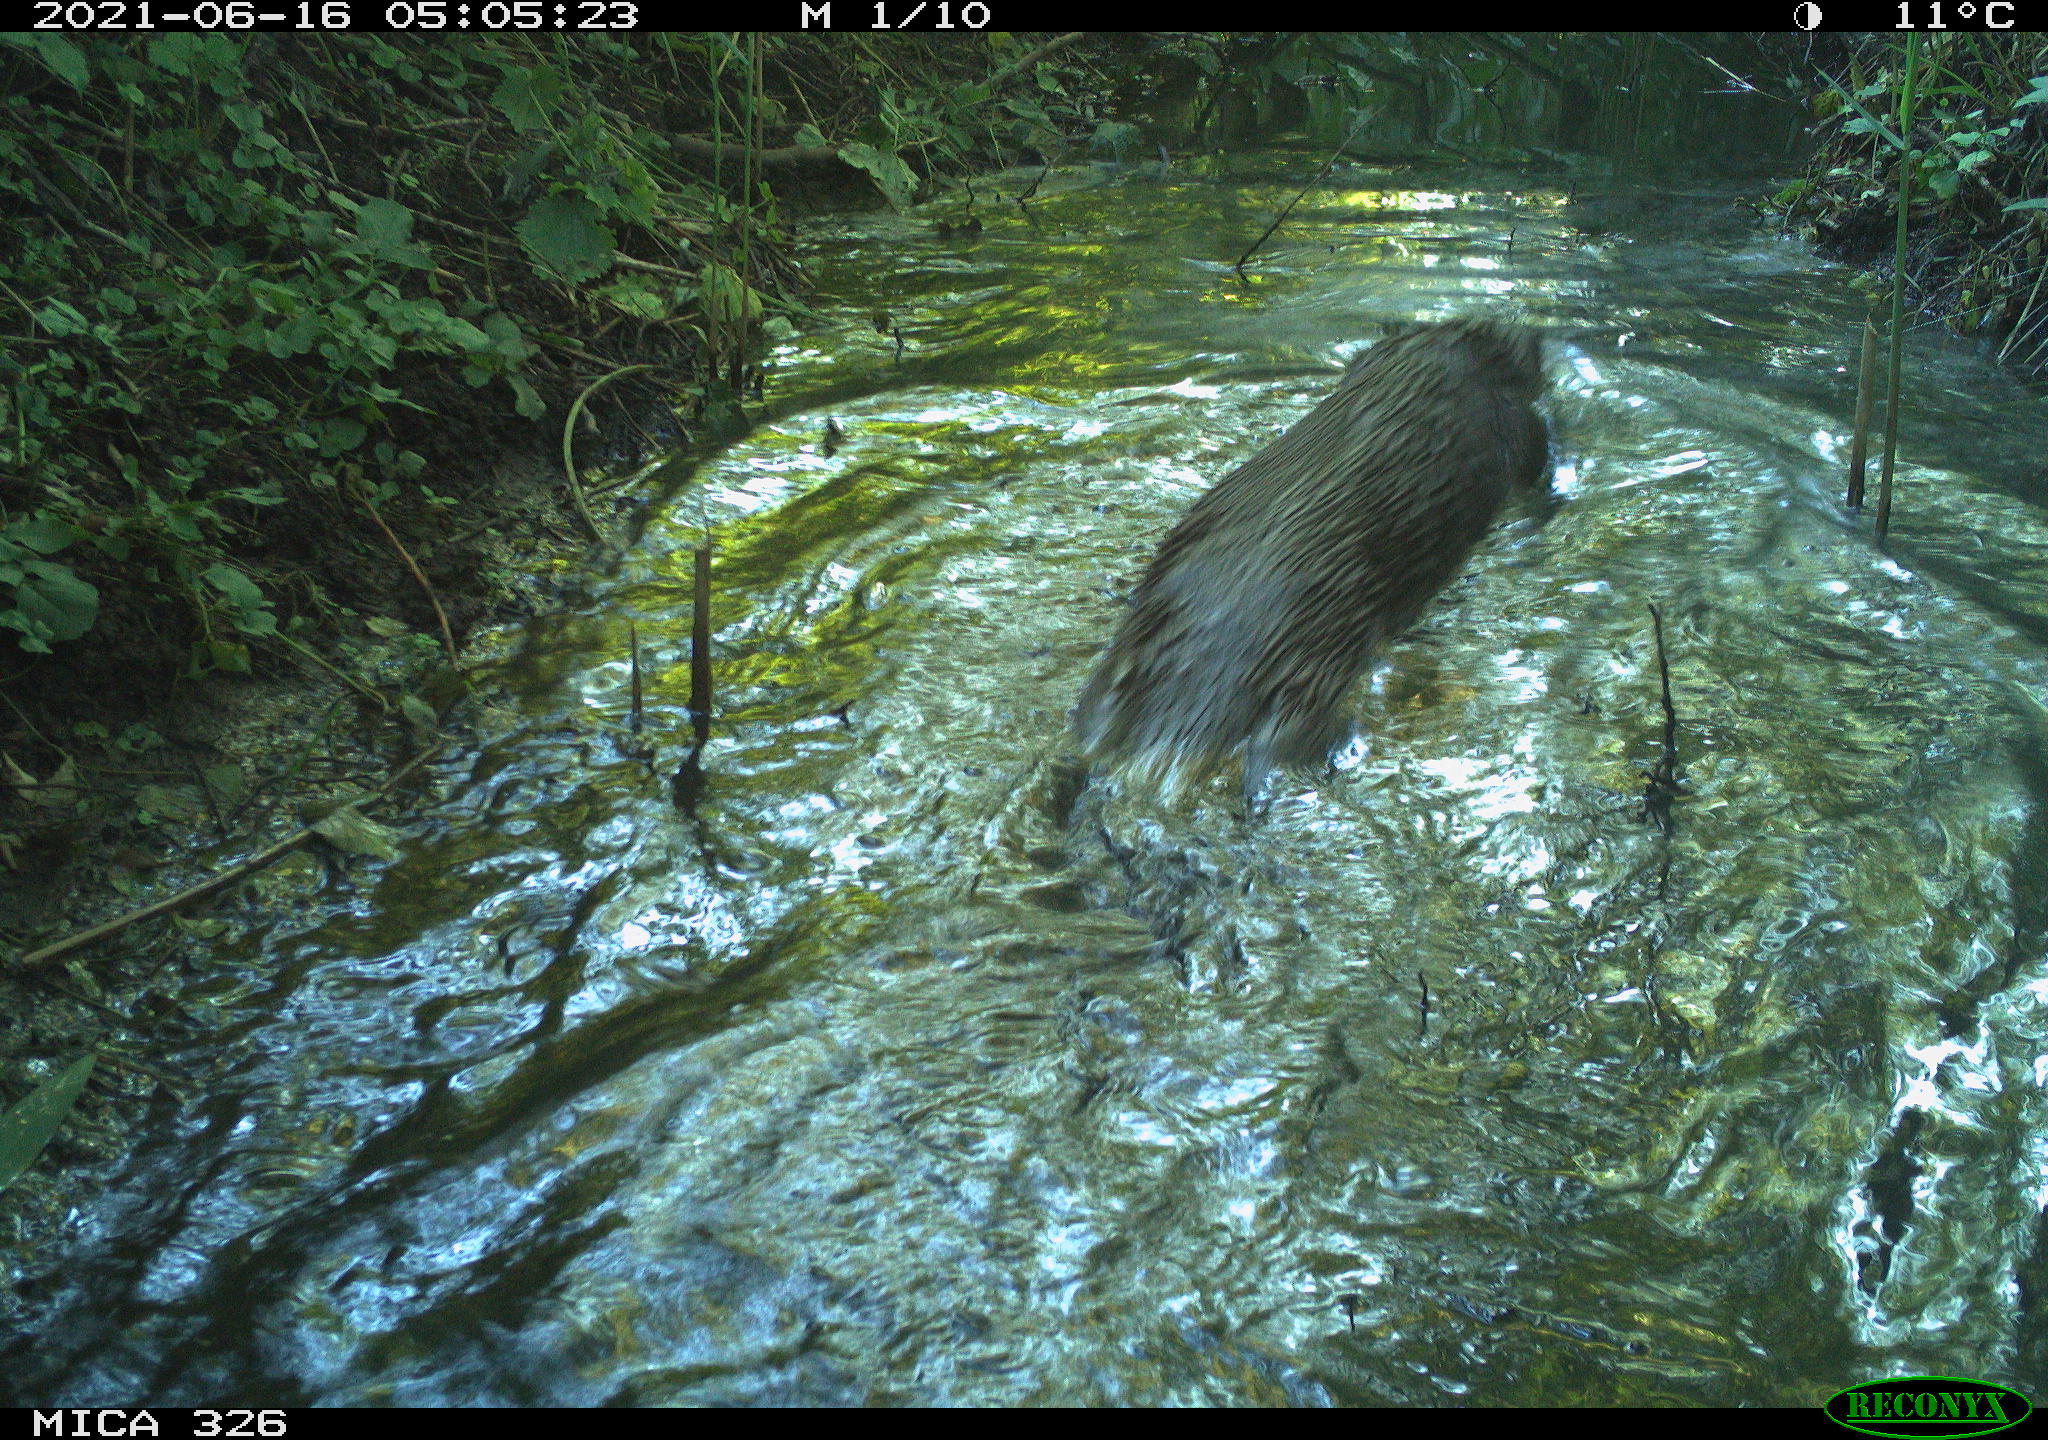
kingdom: Animalia
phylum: Chordata
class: Mammalia
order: Carnivora
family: Mustelidae
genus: Lutra
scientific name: Lutra lutra
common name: European otter
